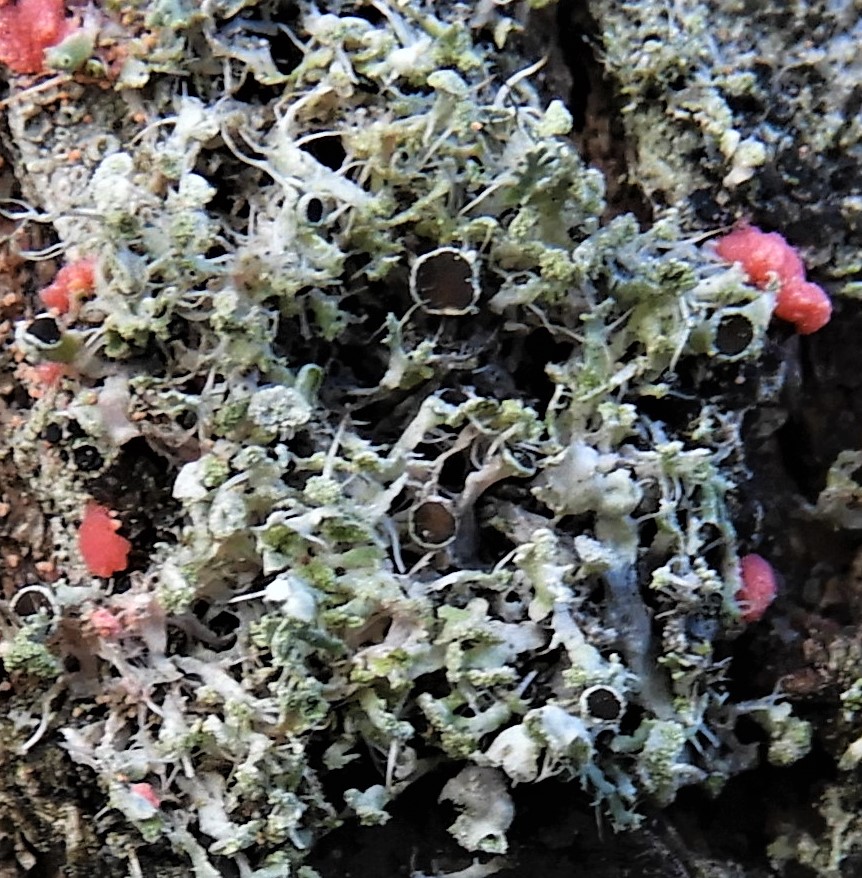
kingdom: Fungi
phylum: Ascomycota
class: Lecanoromycetes
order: Caliciales
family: Physciaceae
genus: Physcia
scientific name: Physcia tenella
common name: spæd rosetlav
